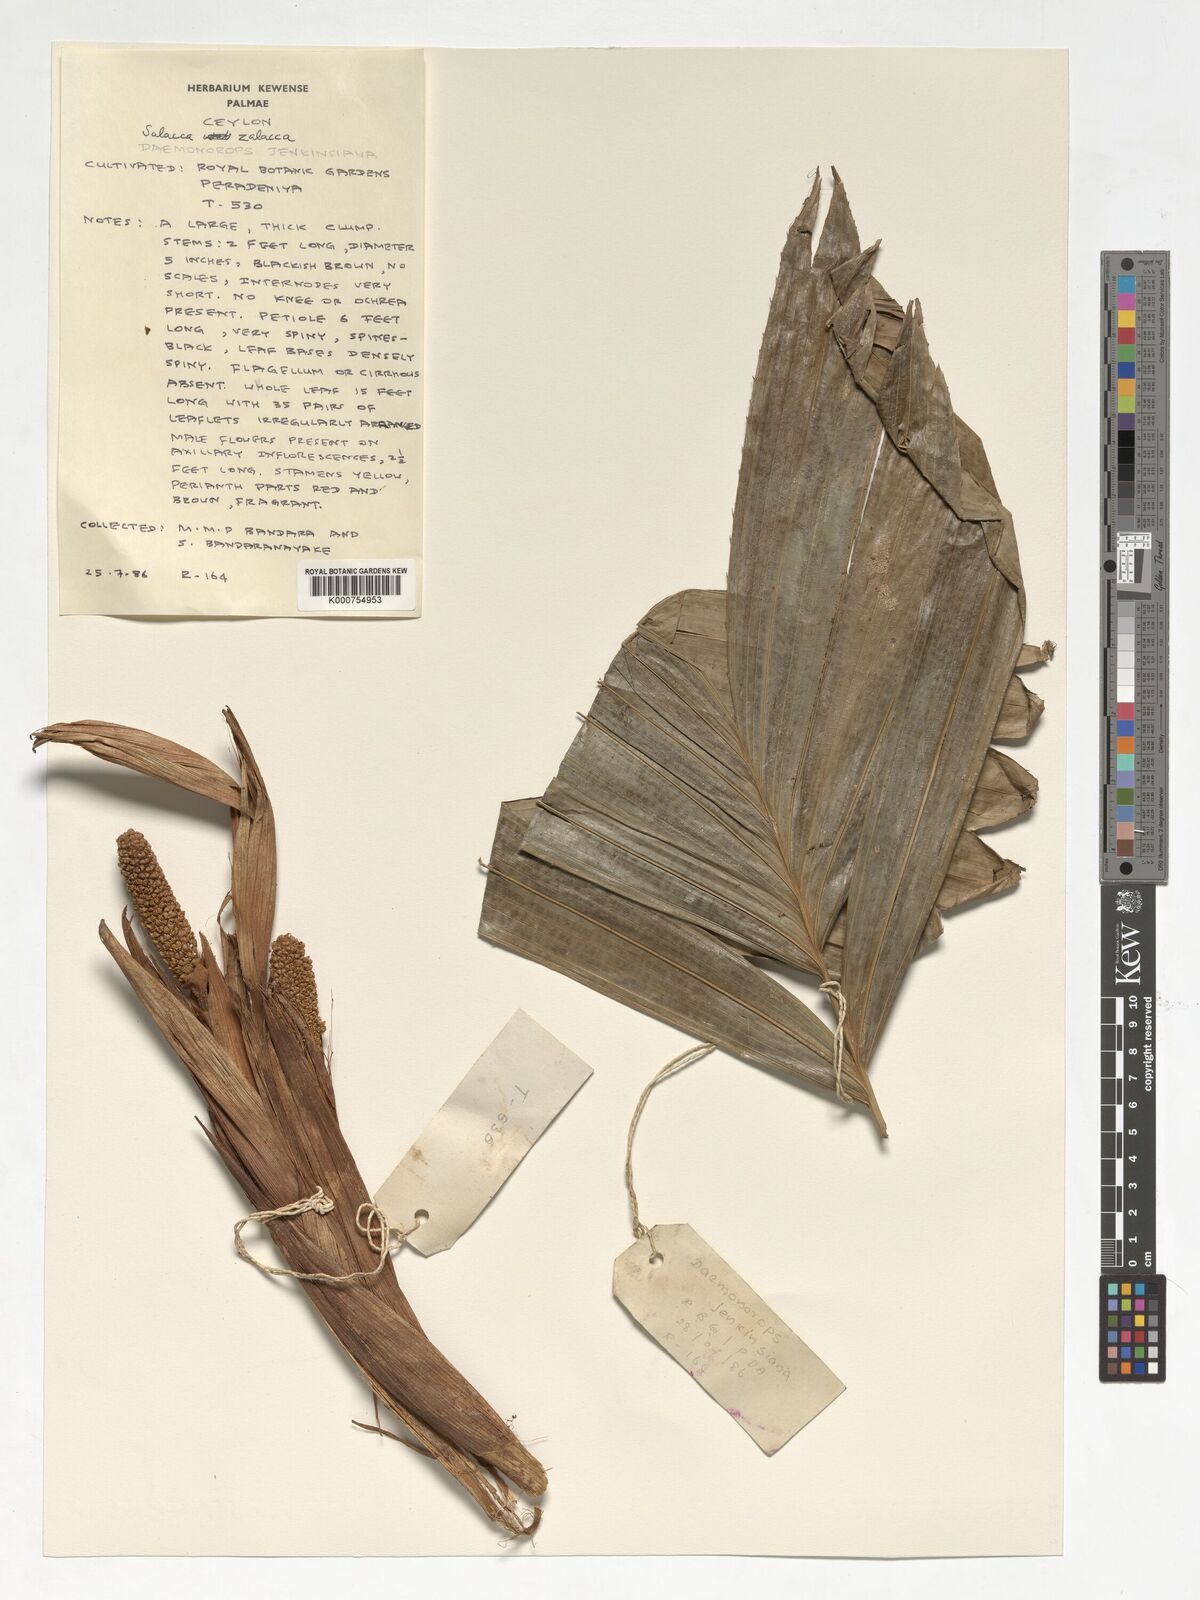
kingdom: Plantae
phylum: Tracheophyta
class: Liliopsida
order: Arecales
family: Arecaceae
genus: Salacca
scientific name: Salacca zalacca
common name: Salak
